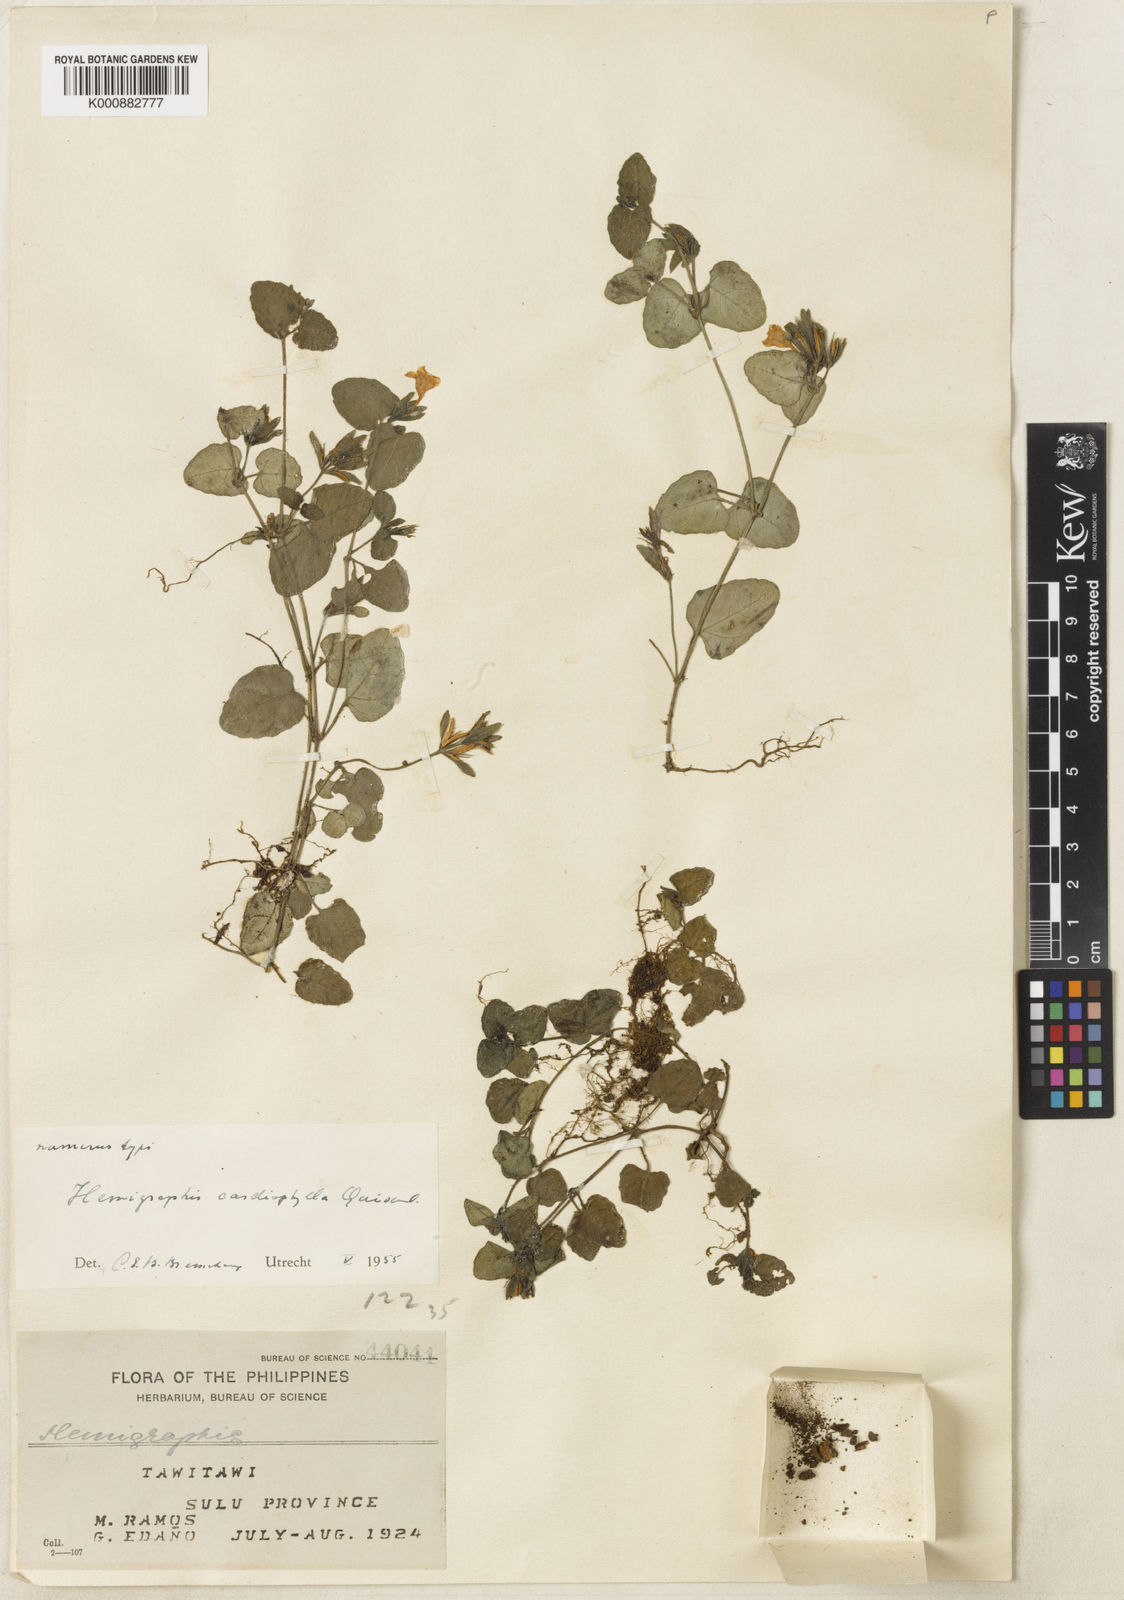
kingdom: Plantae
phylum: Tracheophyta
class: Magnoliopsida
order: Lamiales
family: Acanthaceae
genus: Strobilanthes
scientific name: Strobilanthes reptans
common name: Acanthaceae
